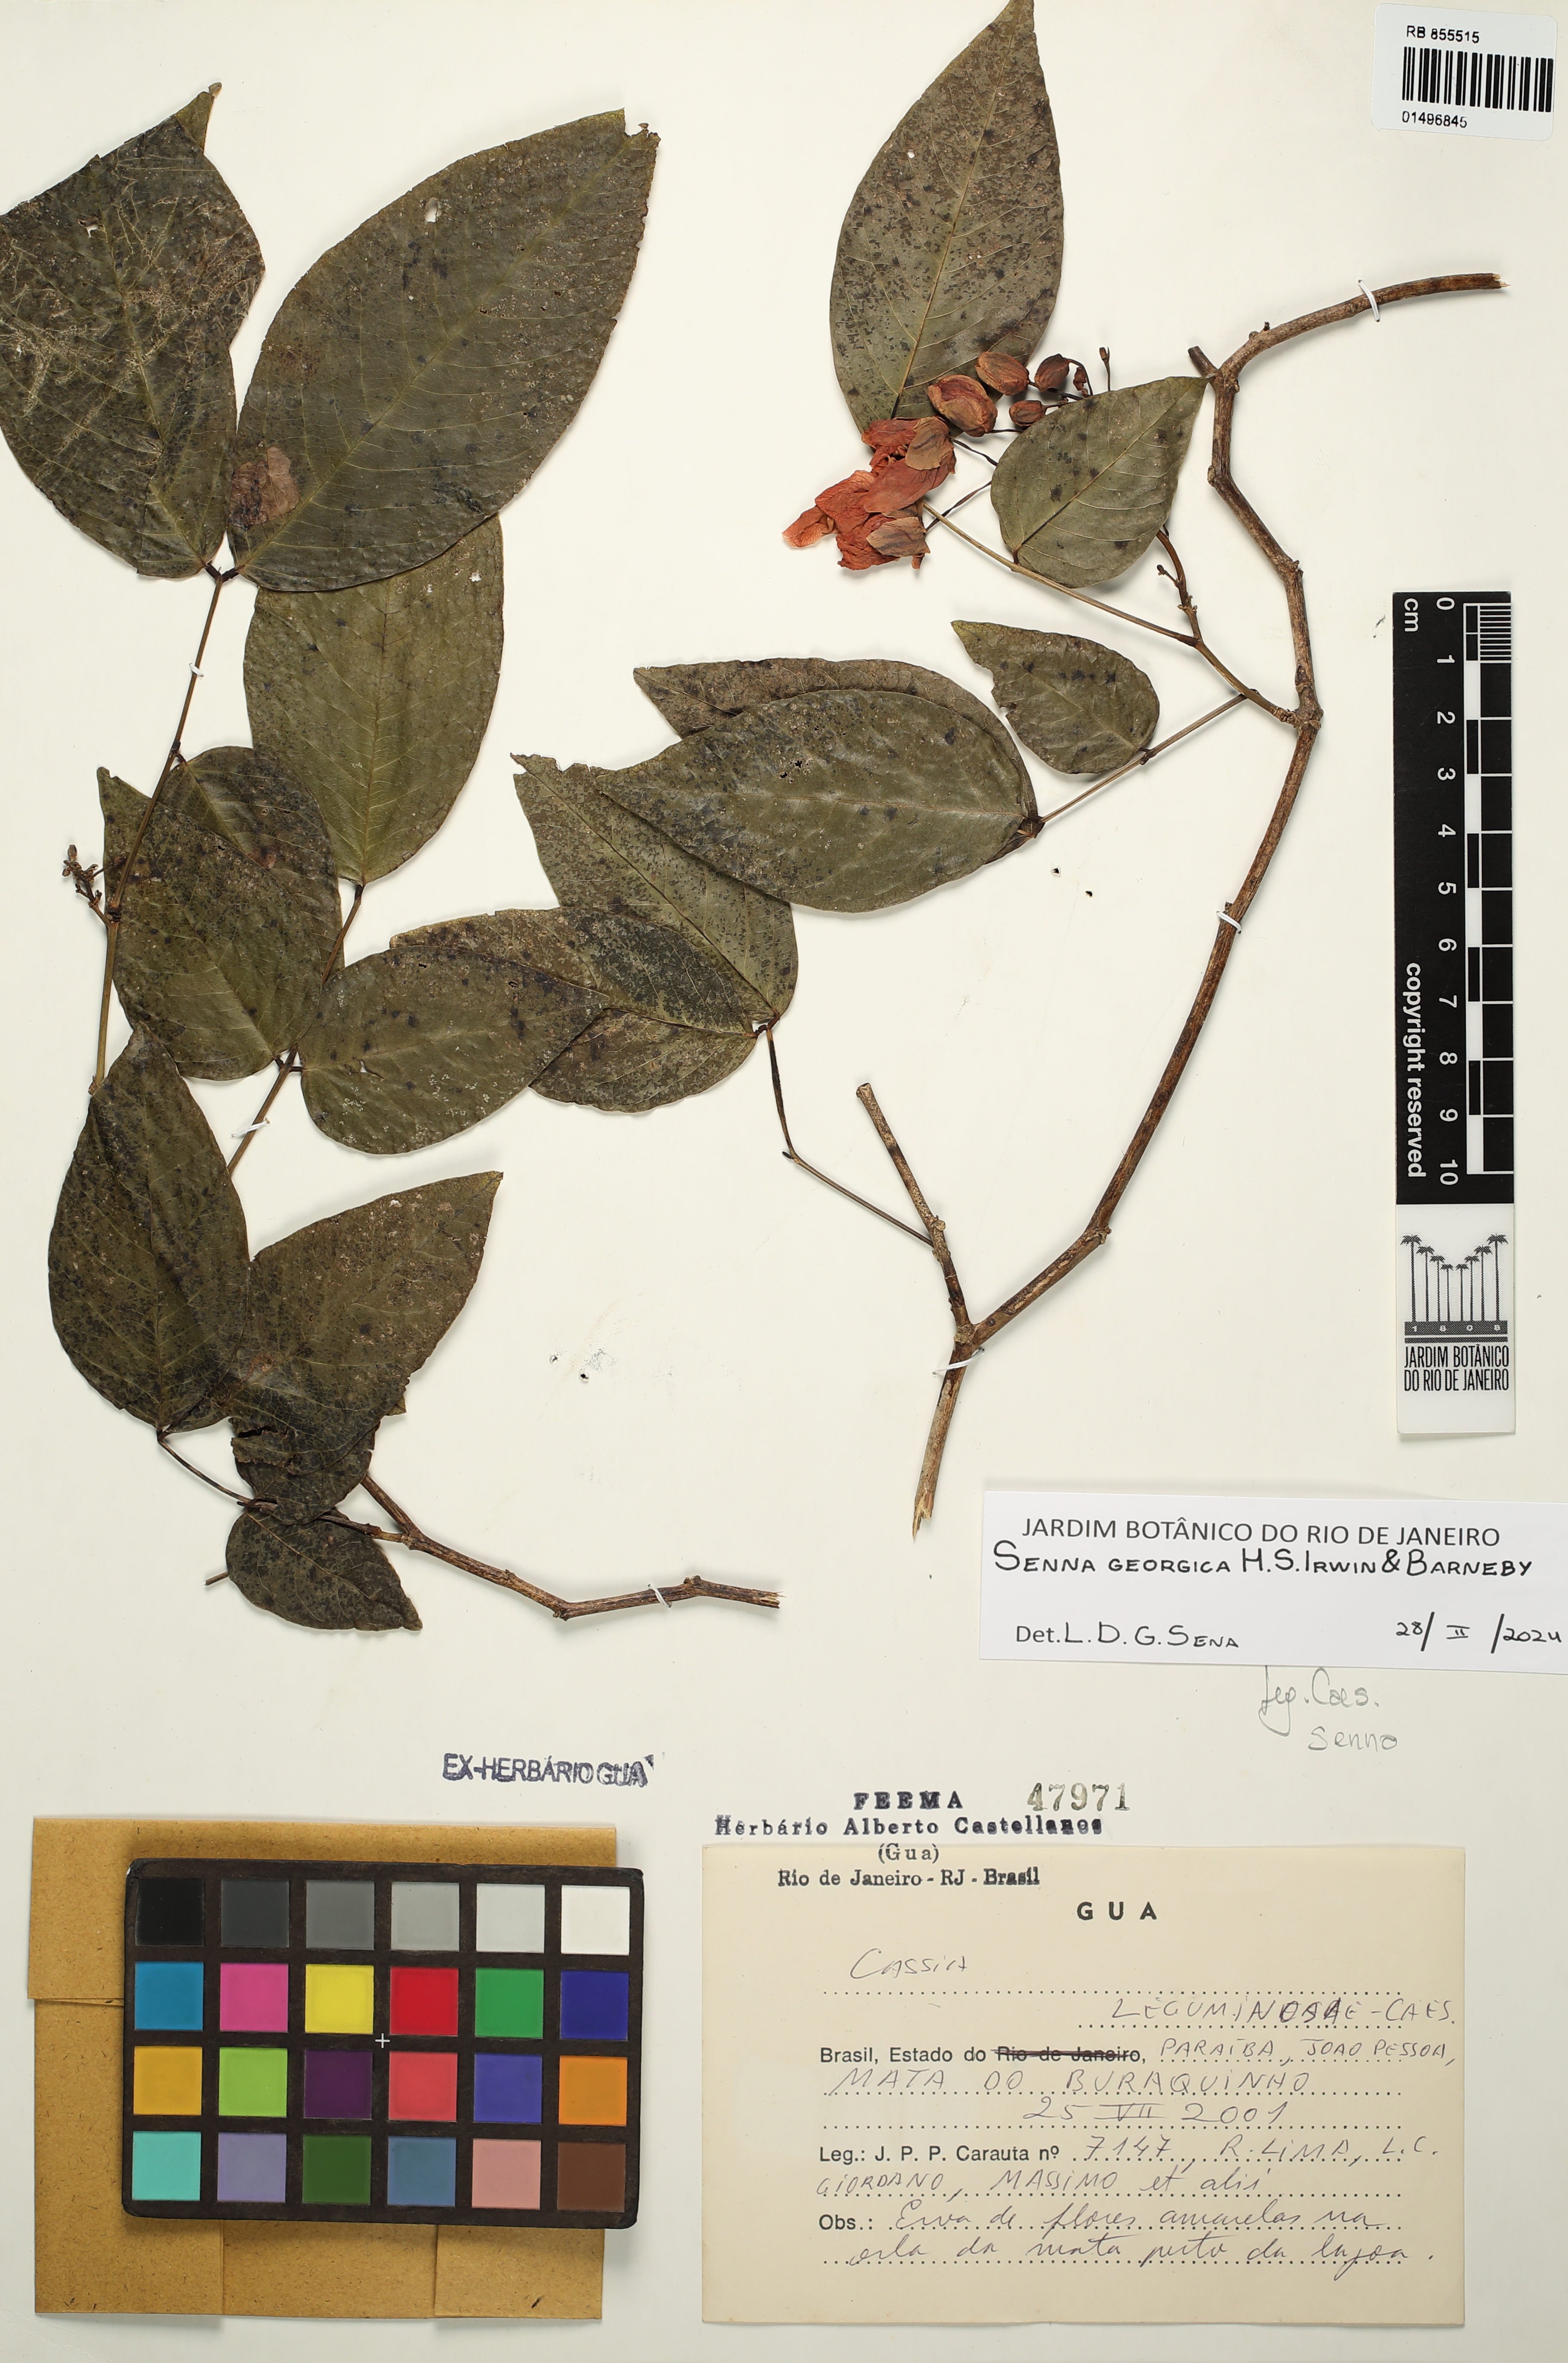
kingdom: Plantae
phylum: Tracheophyta
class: Magnoliopsida
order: Fabales
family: Fabaceae
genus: Senna
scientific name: Senna georgica
